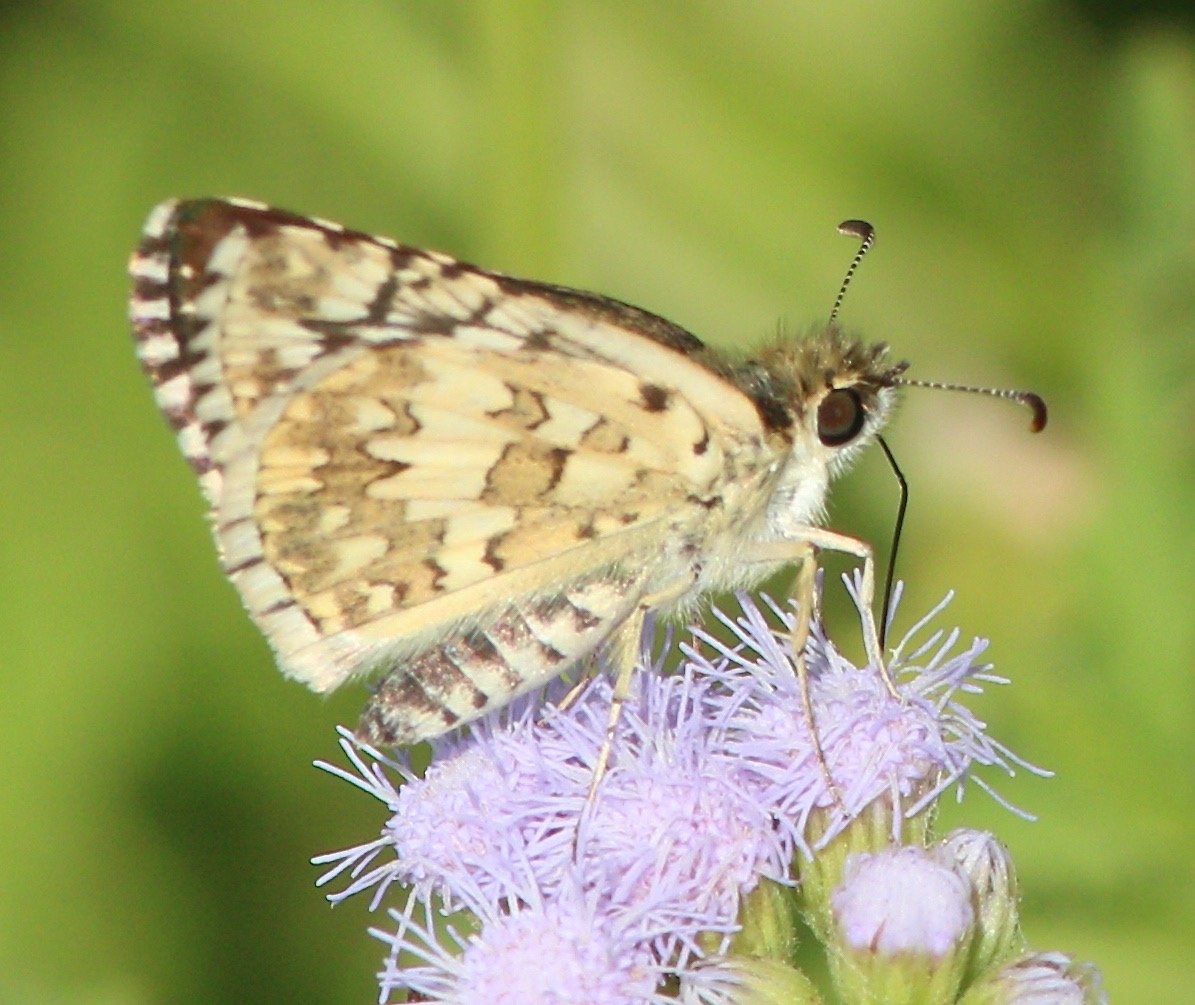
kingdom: Animalia
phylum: Arthropoda
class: Insecta
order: Lepidoptera
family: Hesperiidae
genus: Pyrgus
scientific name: Pyrgus communis
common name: White Checkered-Skipper
